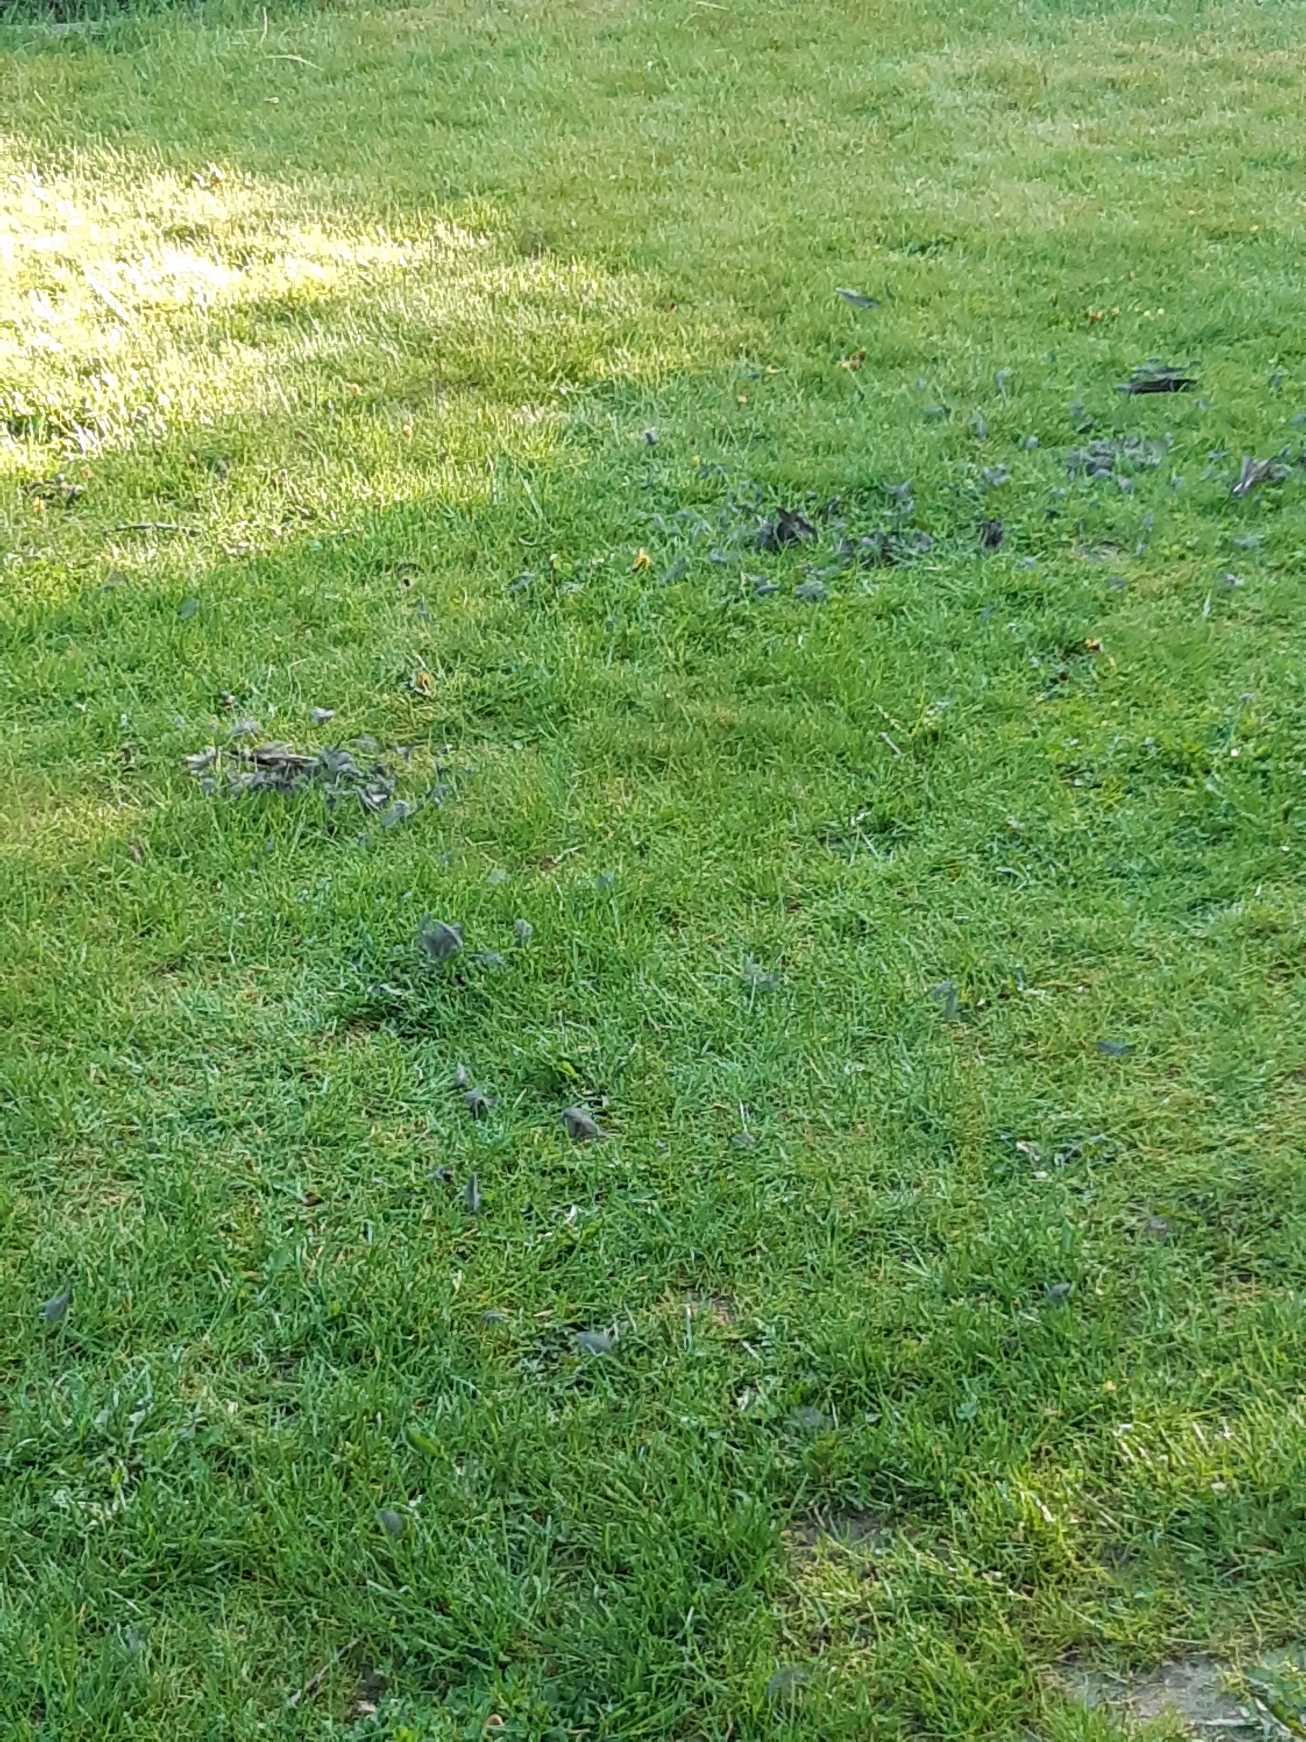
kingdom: Animalia
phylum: Chordata
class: Aves
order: Accipitriformes
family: Accipitridae
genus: Accipiter
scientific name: Accipiter nisus
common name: Spurvehøg
